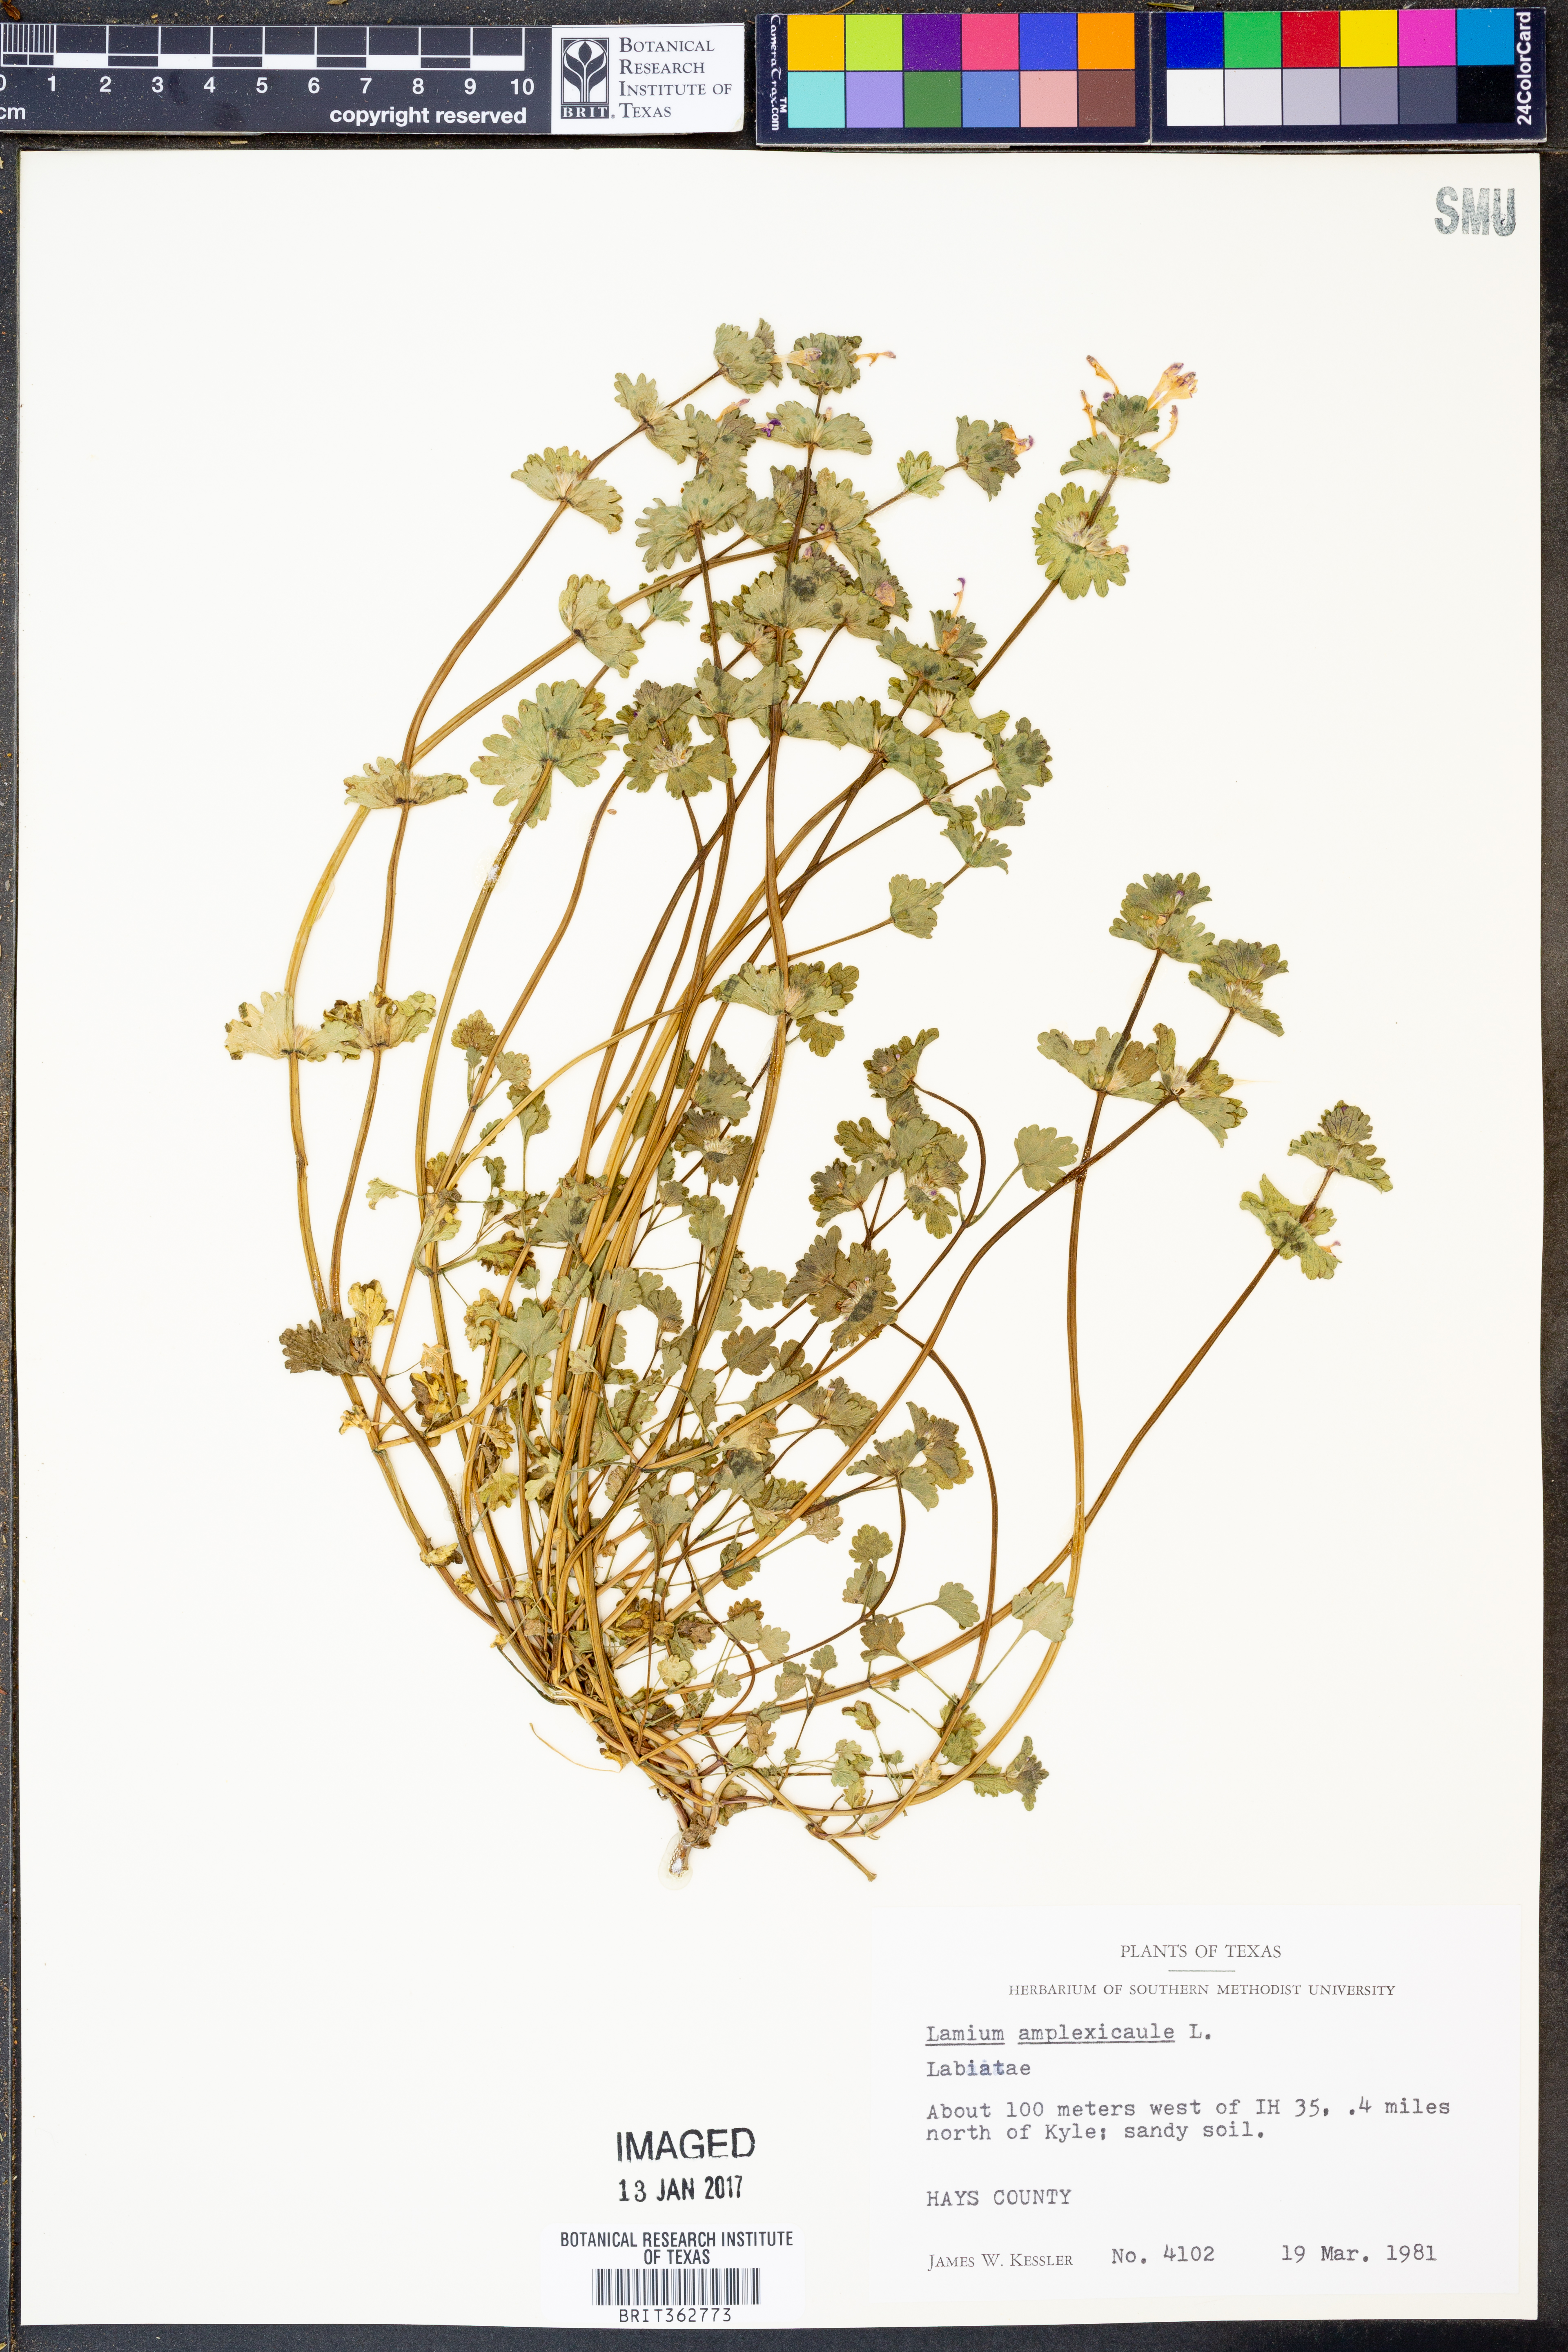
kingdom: Plantae
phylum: Tracheophyta
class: Magnoliopsida
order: Lamiales
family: Lamiaceae
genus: Lamium
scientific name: Lamium amplexicaule
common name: Henbit dead-nettle
